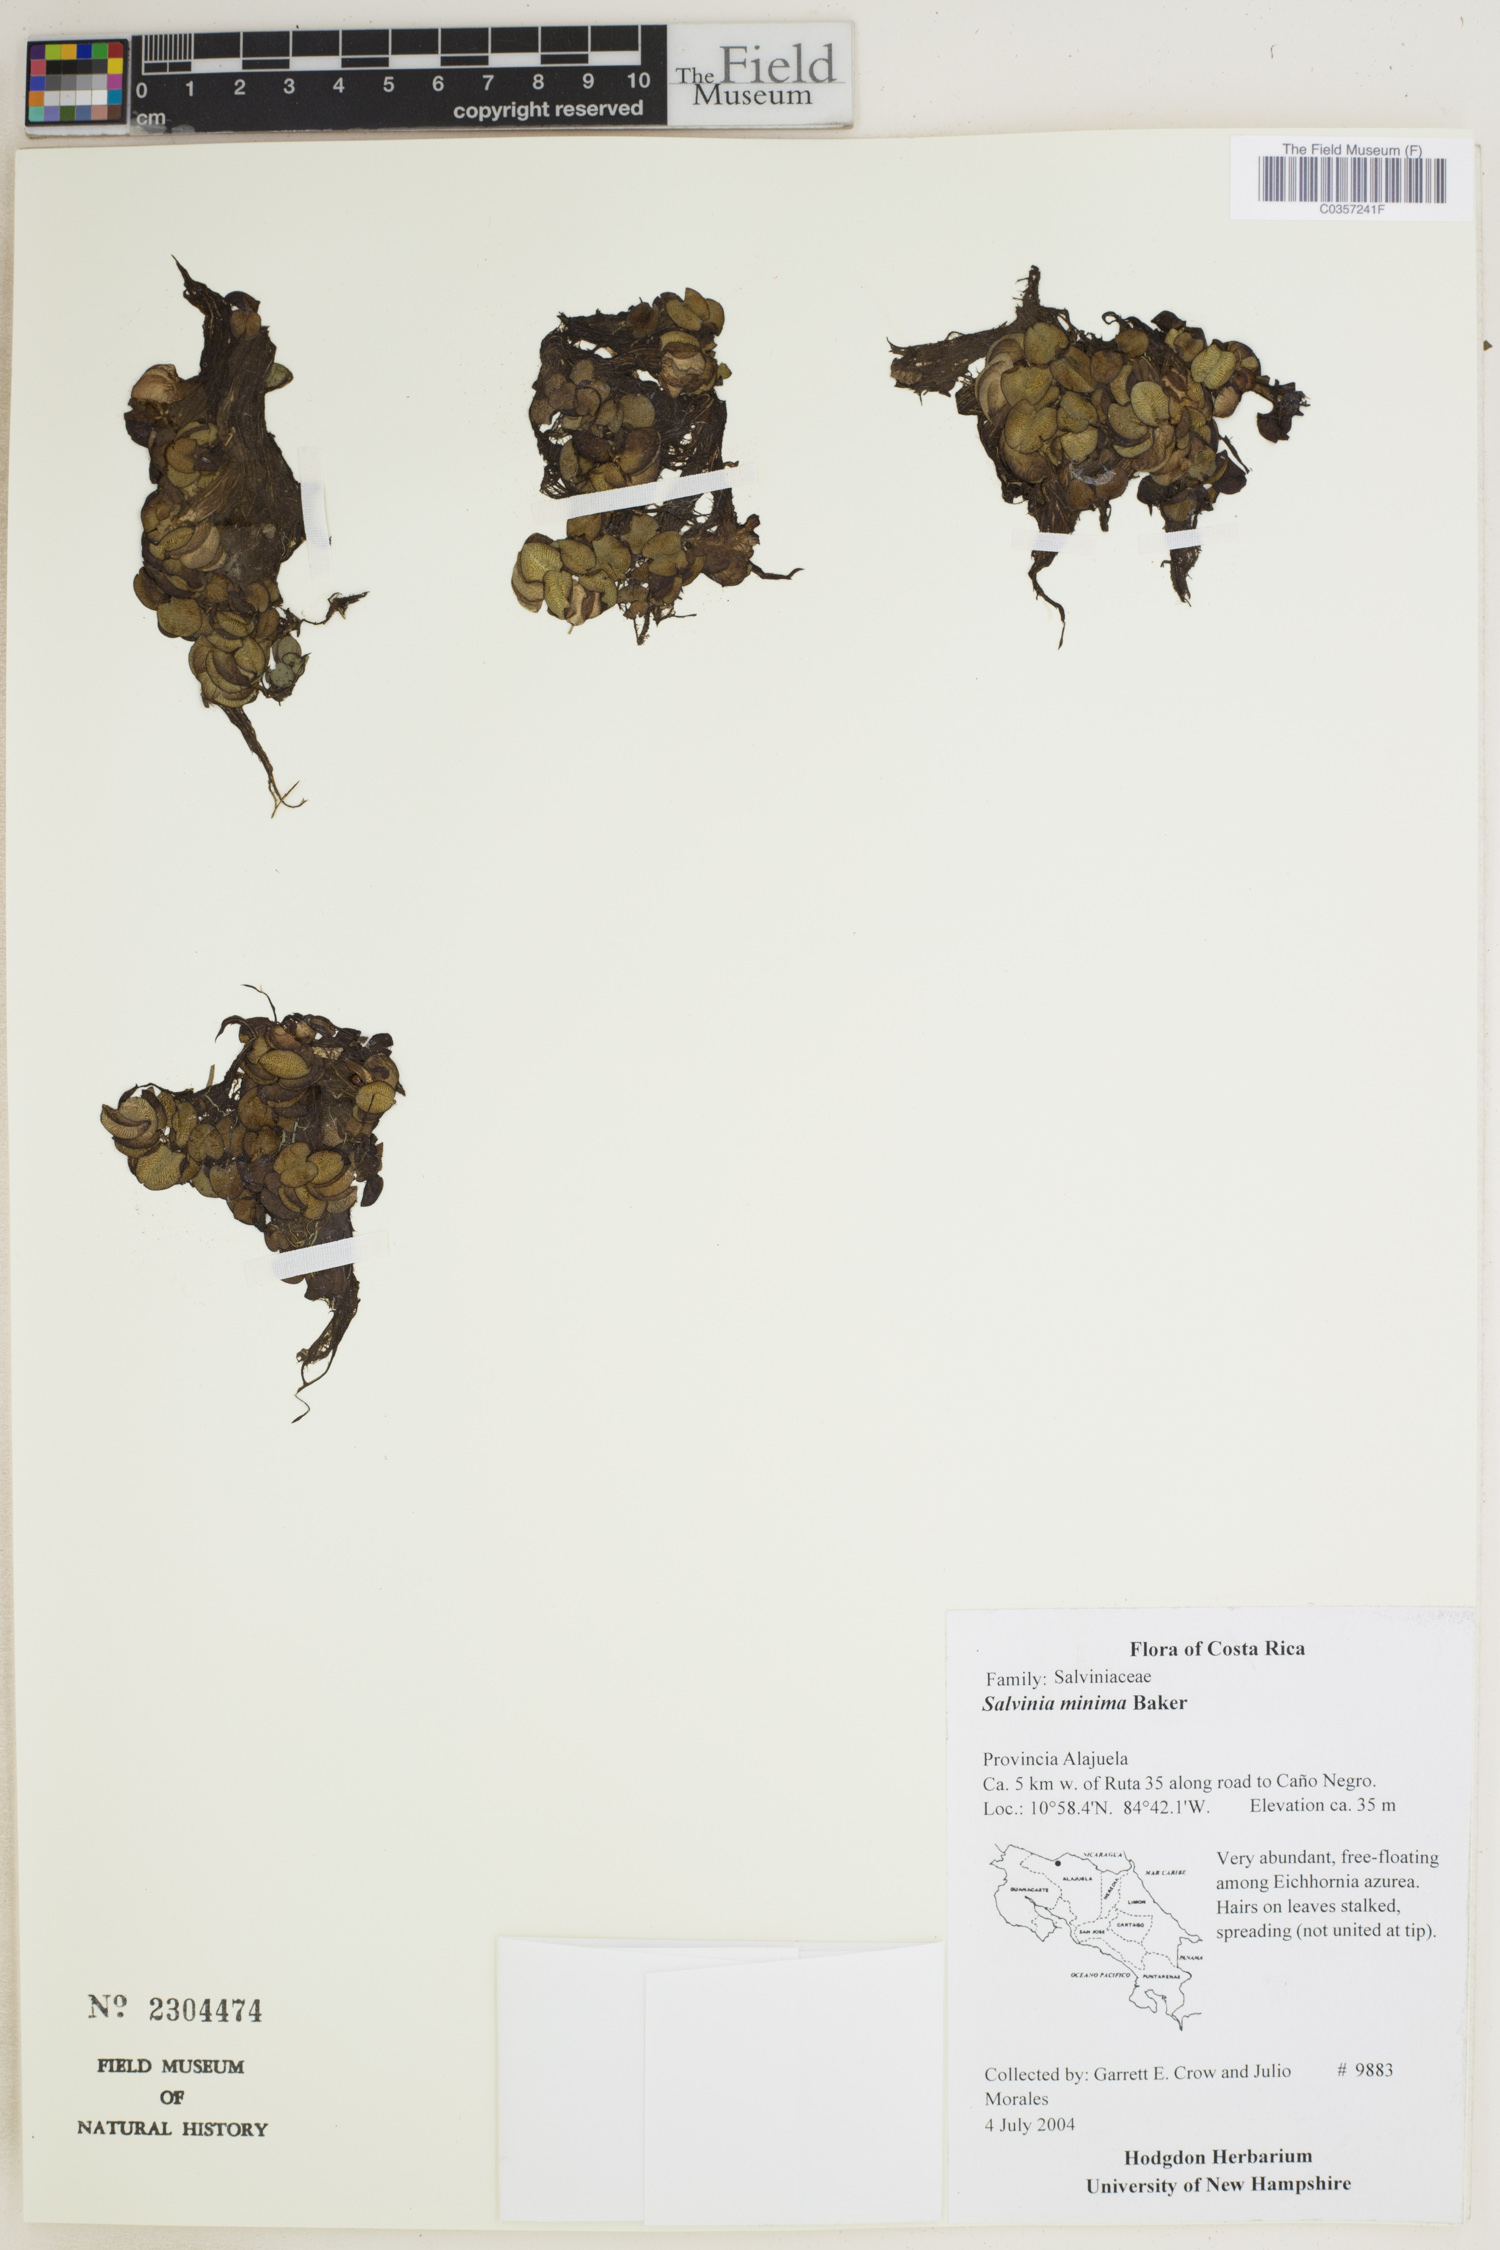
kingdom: Plantae
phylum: Tracheophyta
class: Polypodiopsida
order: Salviniales
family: Salviniaceae
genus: Salvinia
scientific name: Salvinia minima
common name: Water spangles
